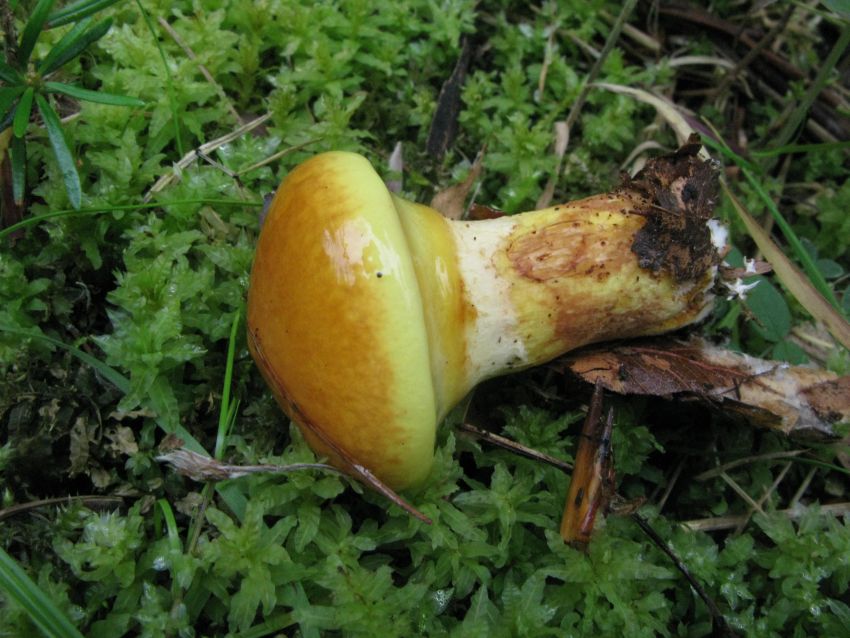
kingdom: Fungi
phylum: Basidiomycota
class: Agaricomycetes
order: Boletales
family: Suillaceae
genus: Suillus
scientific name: Suillus grevillei
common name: lærke-slimrørhat
